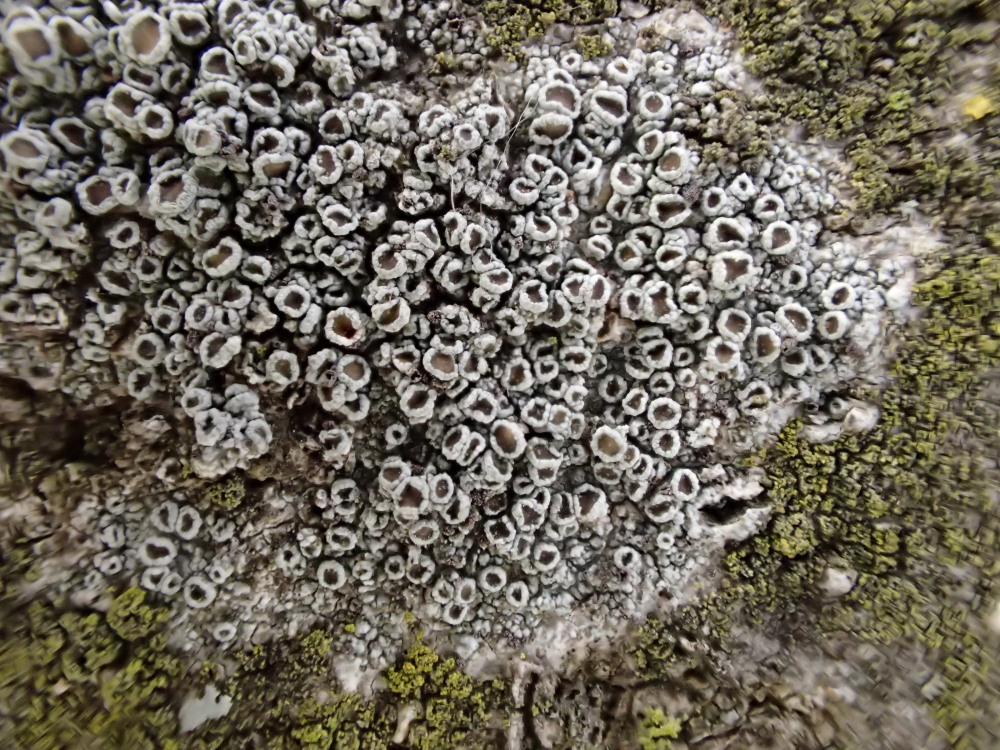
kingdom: Fungi
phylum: Ascomycota
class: Lecanoromycetes
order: Lecanorales
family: Lecanoraceae
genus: Lecanora
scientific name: Lecanora chlarotera
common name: brun kantskivelav
